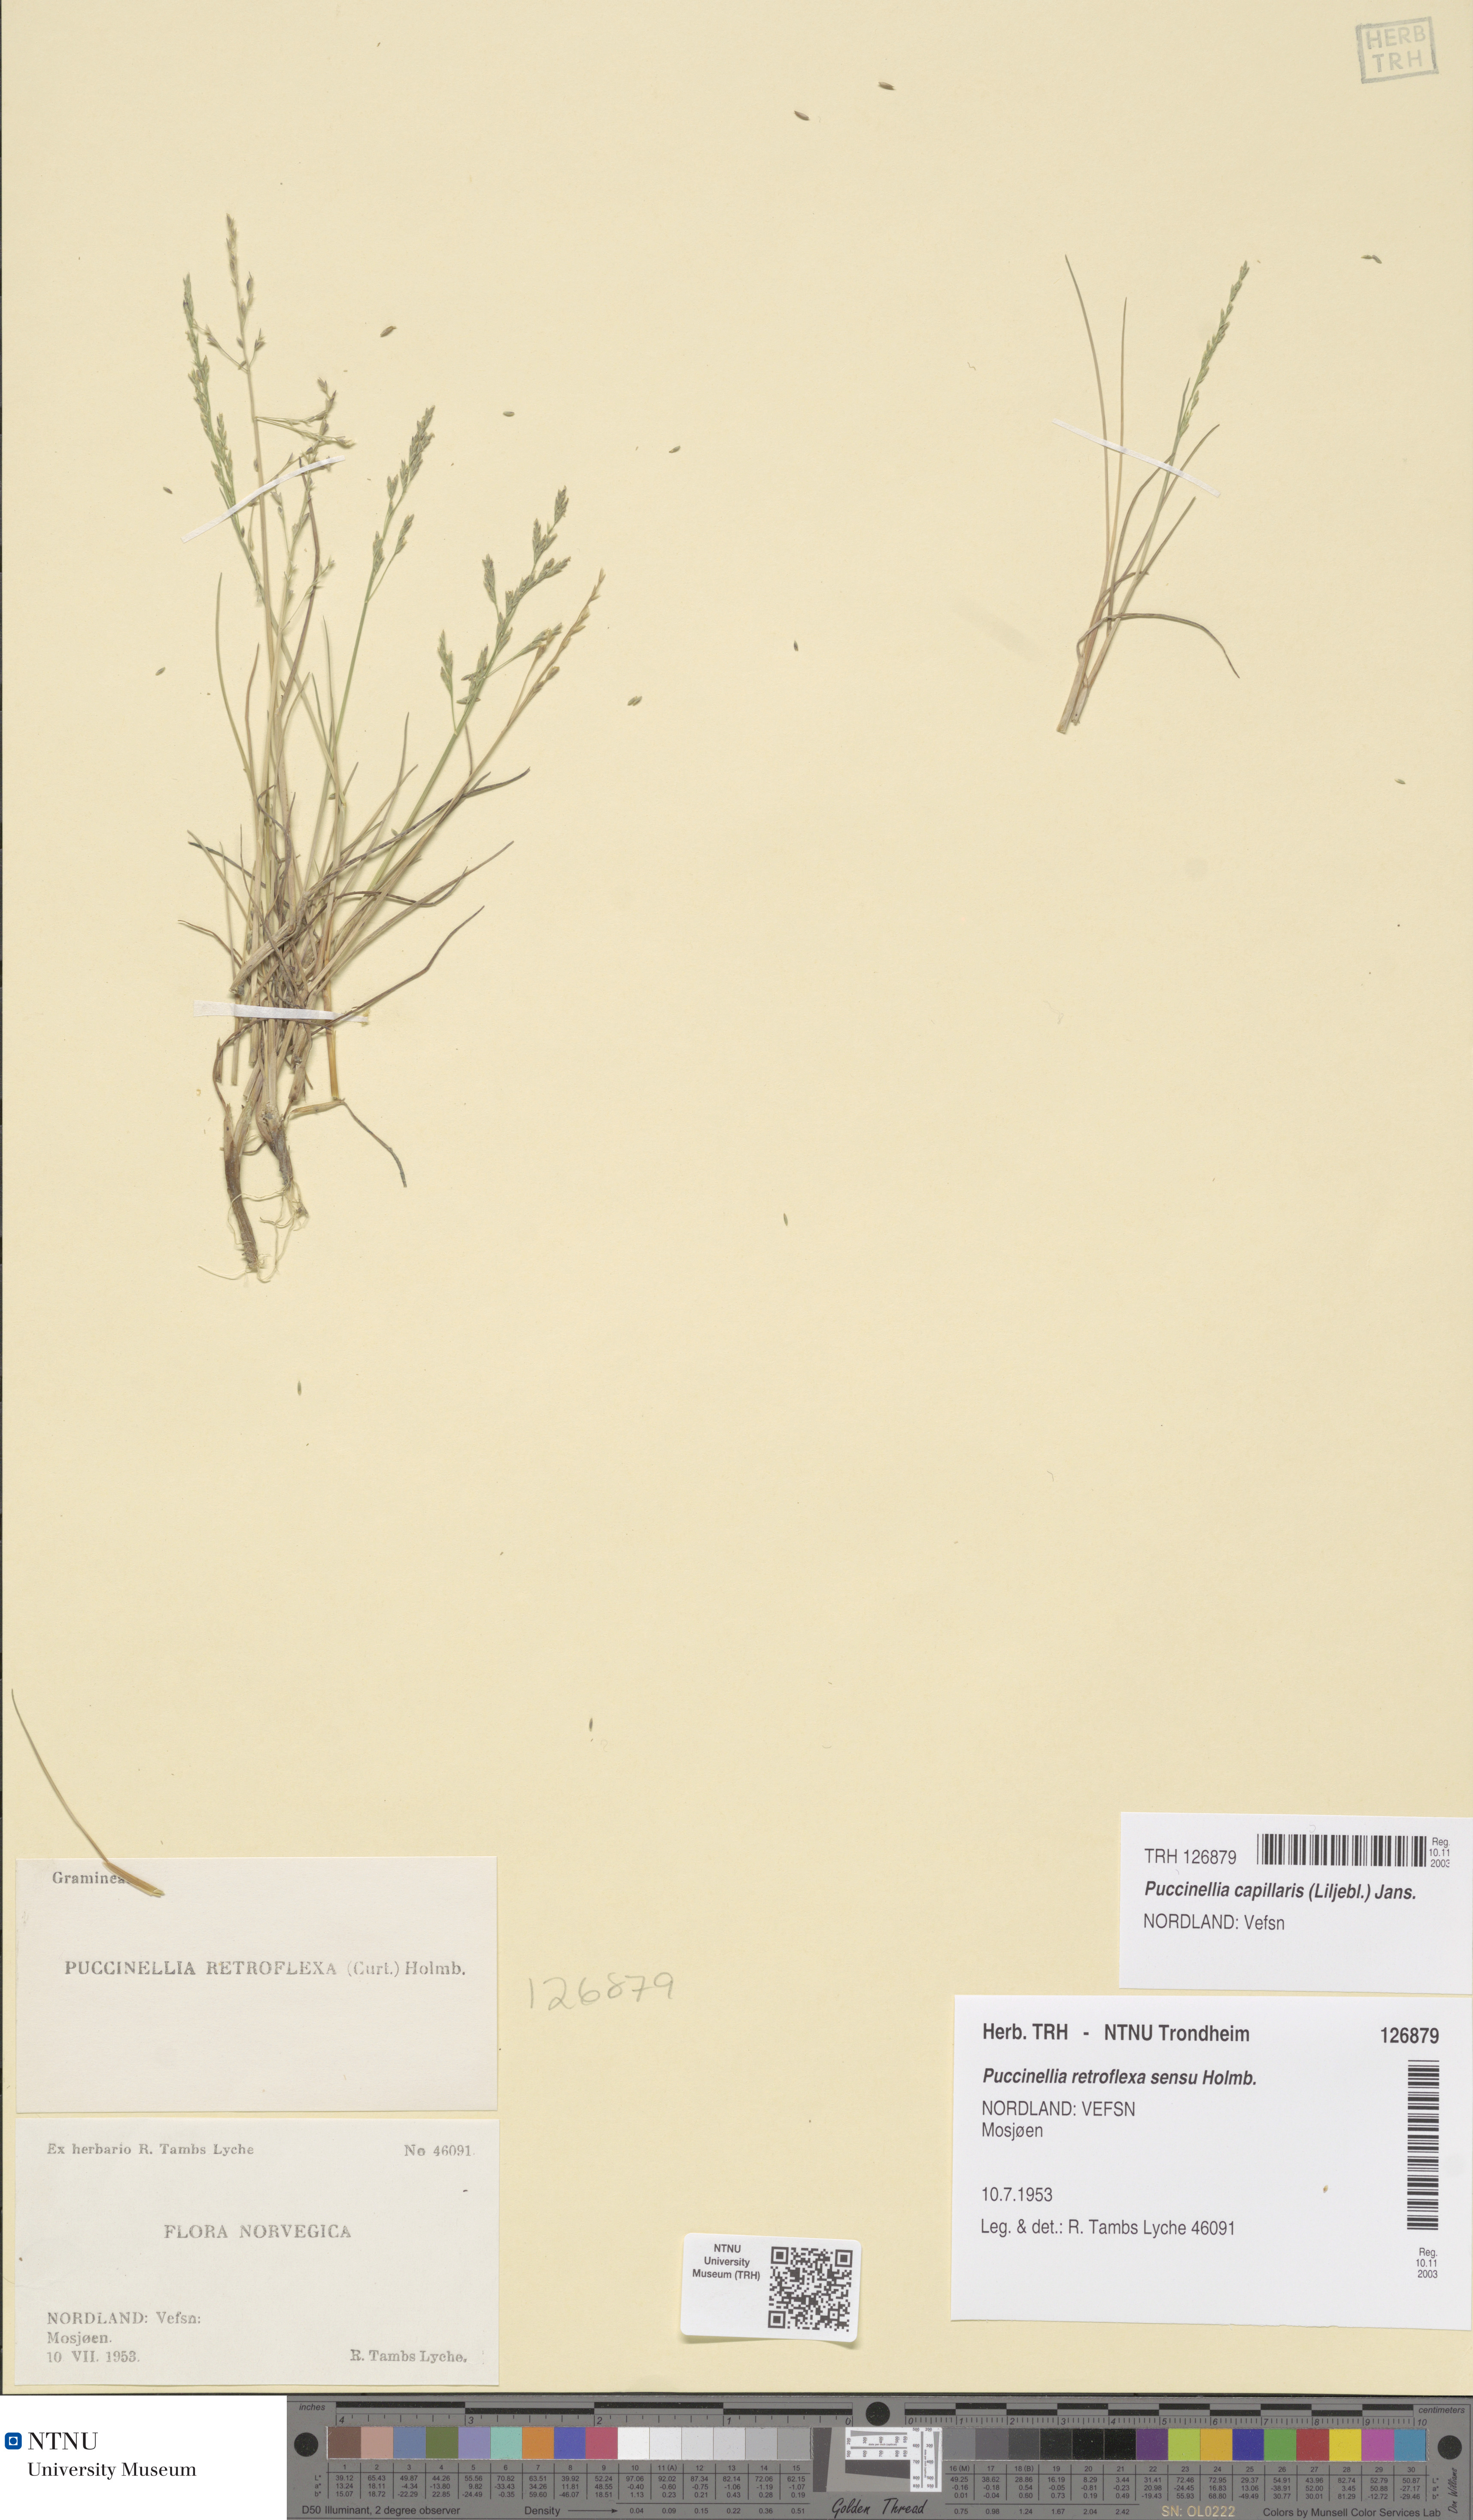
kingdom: Plantae
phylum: Tracheophyta
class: Liliopsida
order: Poales
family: Poaceae
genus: Puccinellia
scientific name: Puccinellia distans
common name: Weeping alkaligrass
